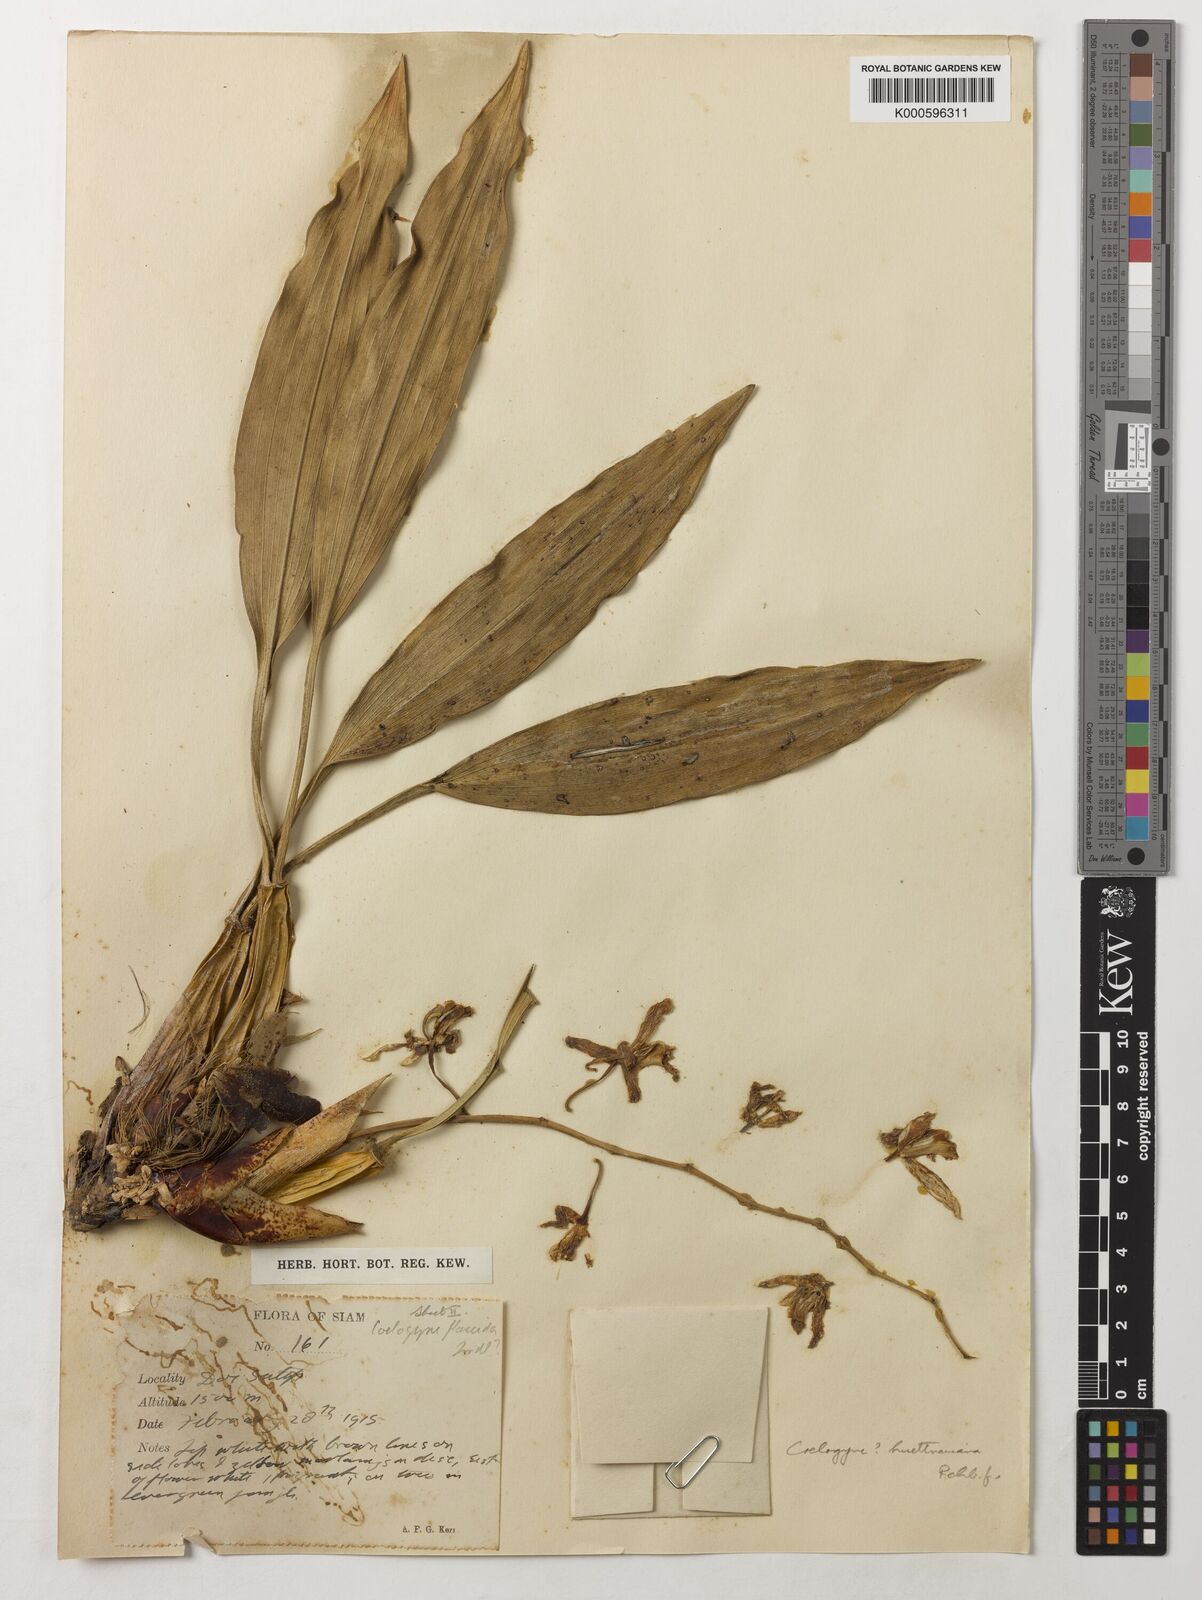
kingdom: Plantae
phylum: Tracheophyta
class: Liliopsida
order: Asparagales
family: Orchidaceae
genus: Coelogyne
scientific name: Coelogyne huettneriana
